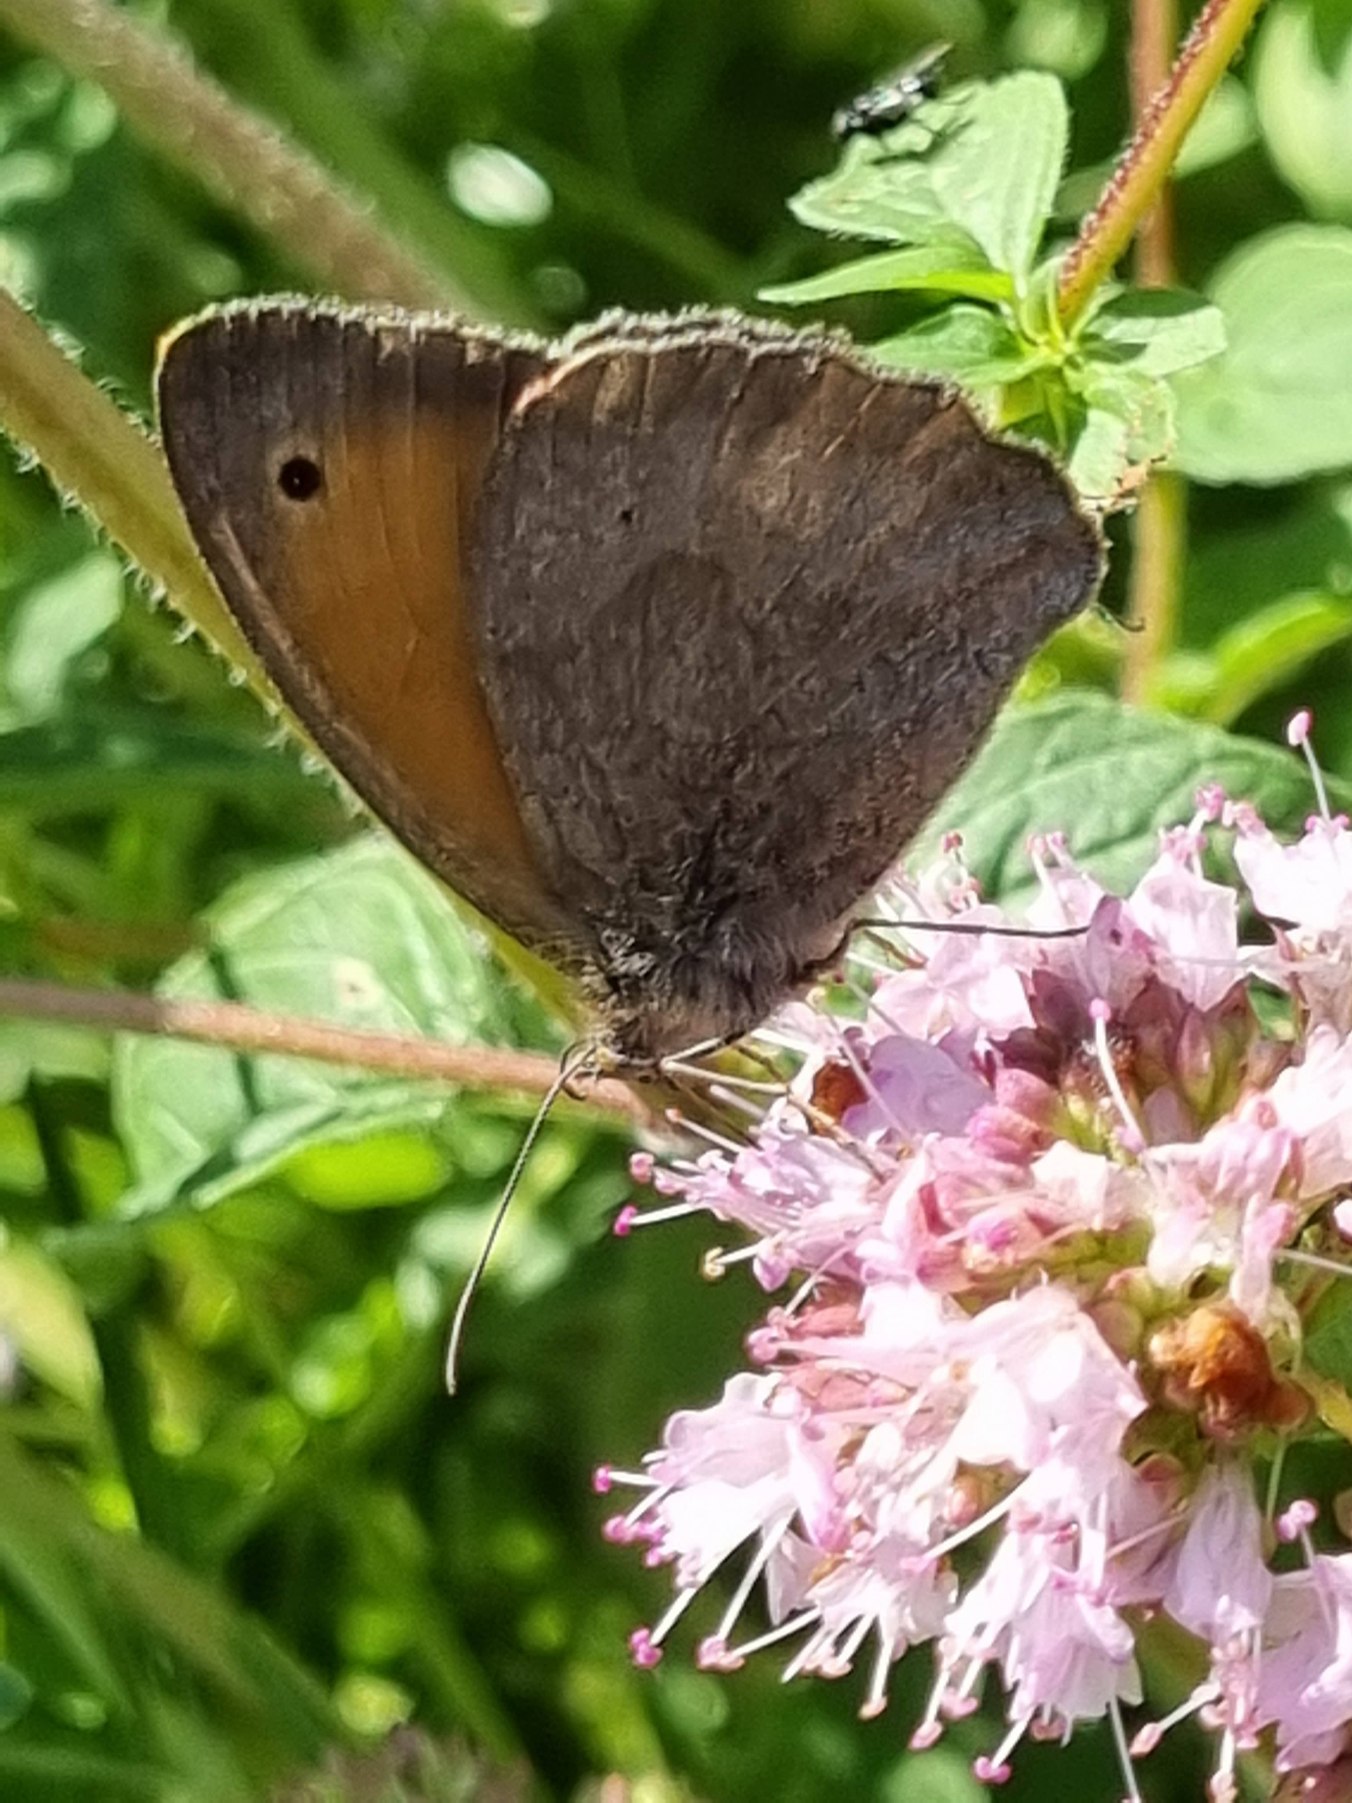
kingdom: Animalia
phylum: Arthropoda
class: Insecta
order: Lepidoptera
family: Nymphalidae
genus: Maniola
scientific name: Maniola jurtina
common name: Græsrandøje
